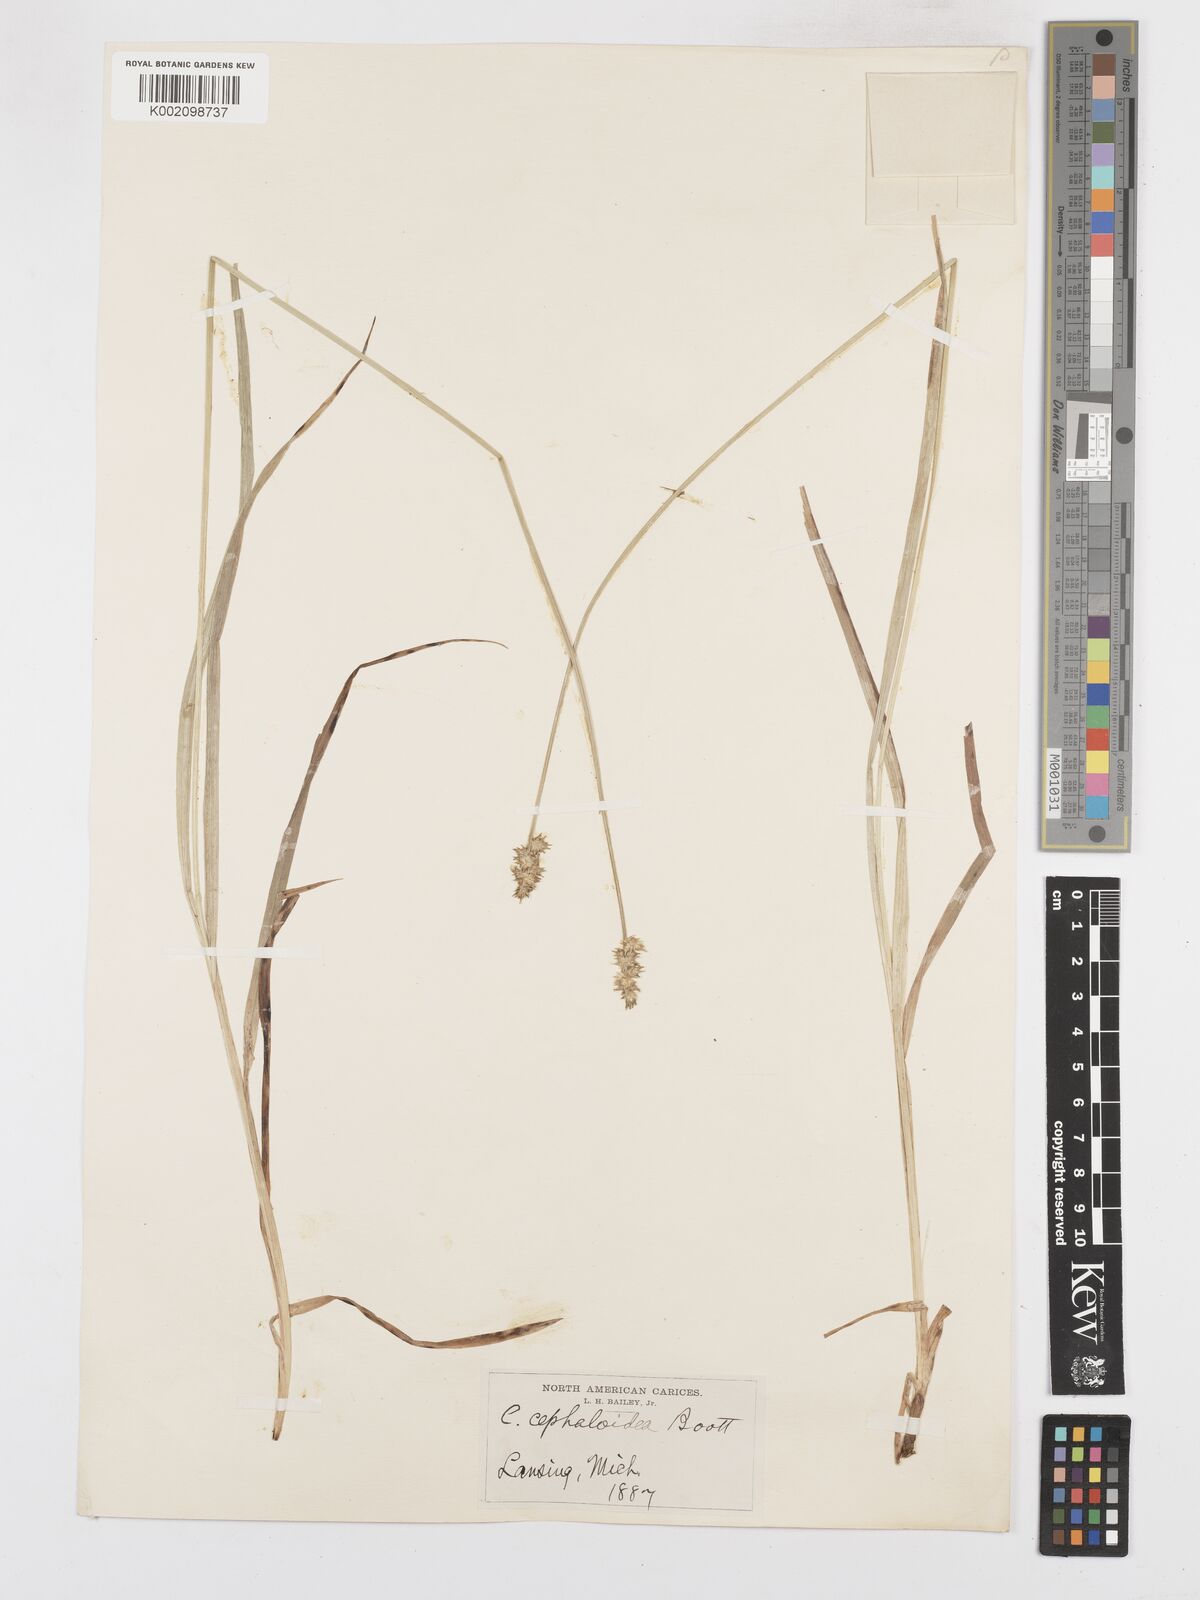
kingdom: Plantae
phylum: Tracheophyta
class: Liliopsida
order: Poales
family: Cyperaceae
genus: Carex
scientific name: Carex cephaloidea
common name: Thin-leaved sedge
